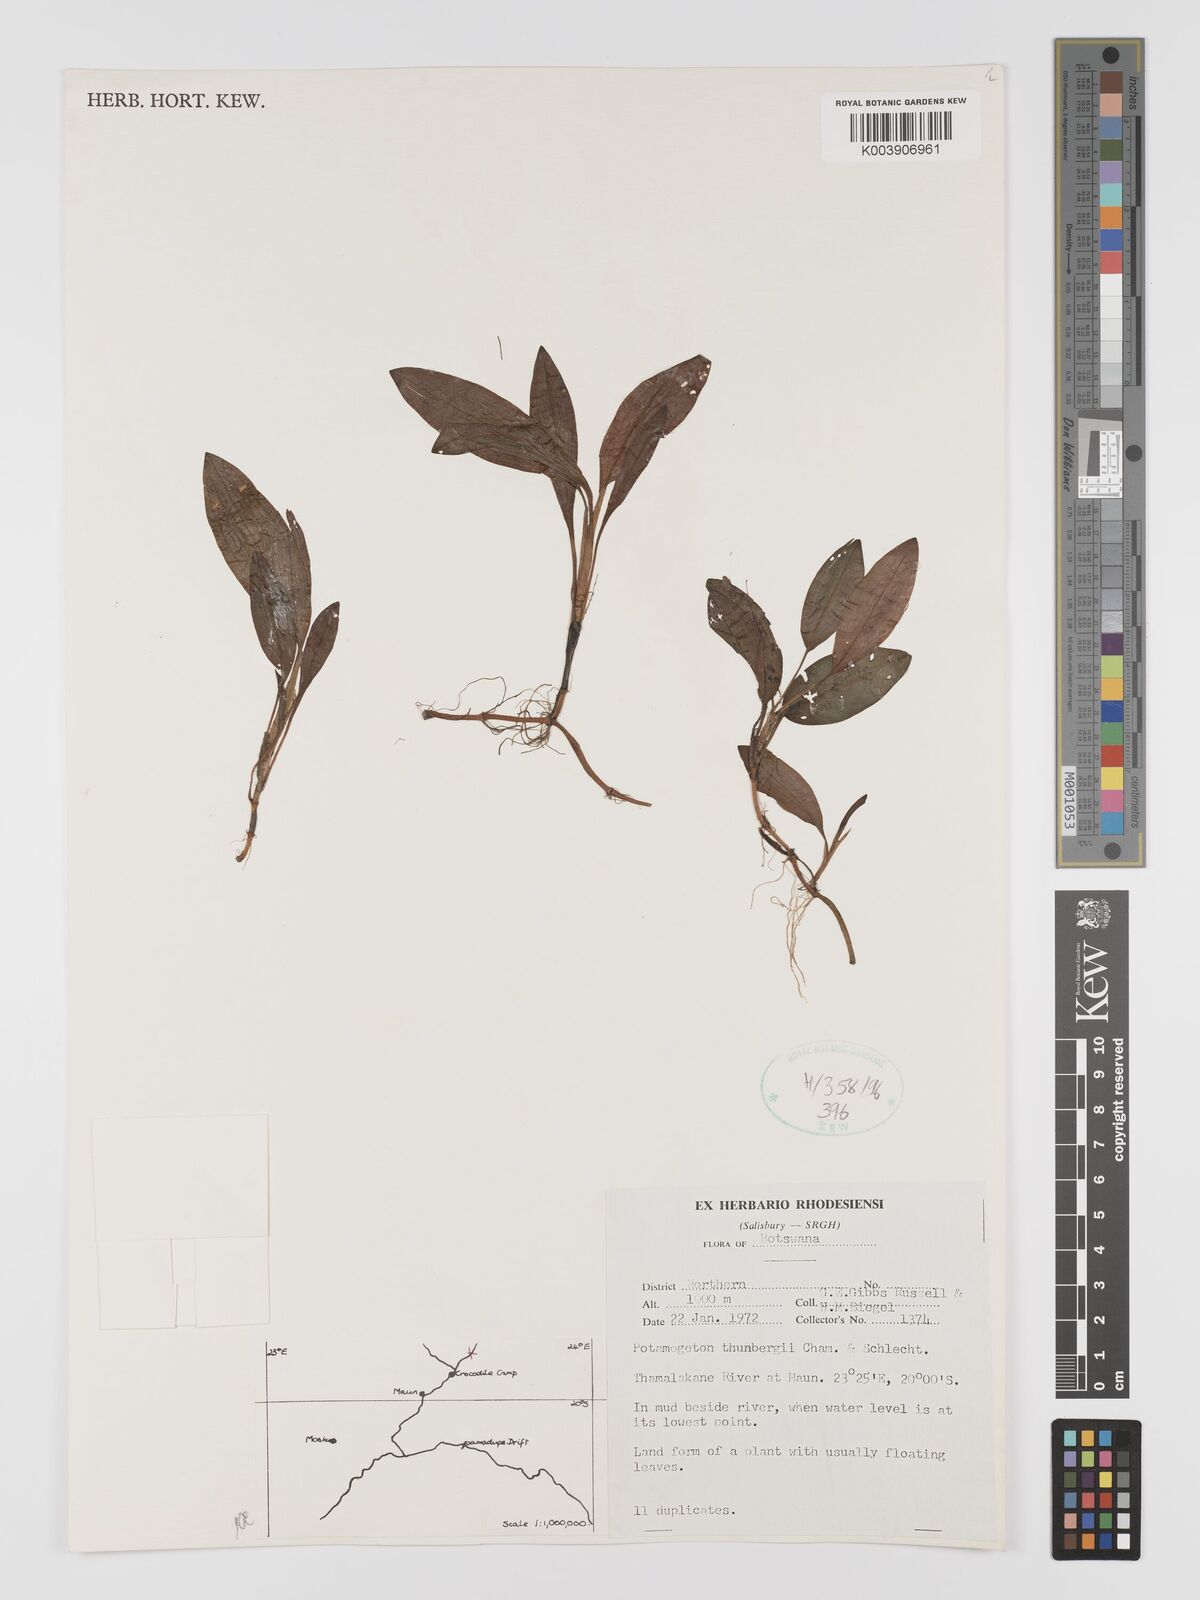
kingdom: Plantae
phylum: Tracheophyta
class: Liliopsida
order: Alismatales
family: Potamogetonaceae
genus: Potamogeton
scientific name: Potamogeton nodosus
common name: Loddon pondweed
